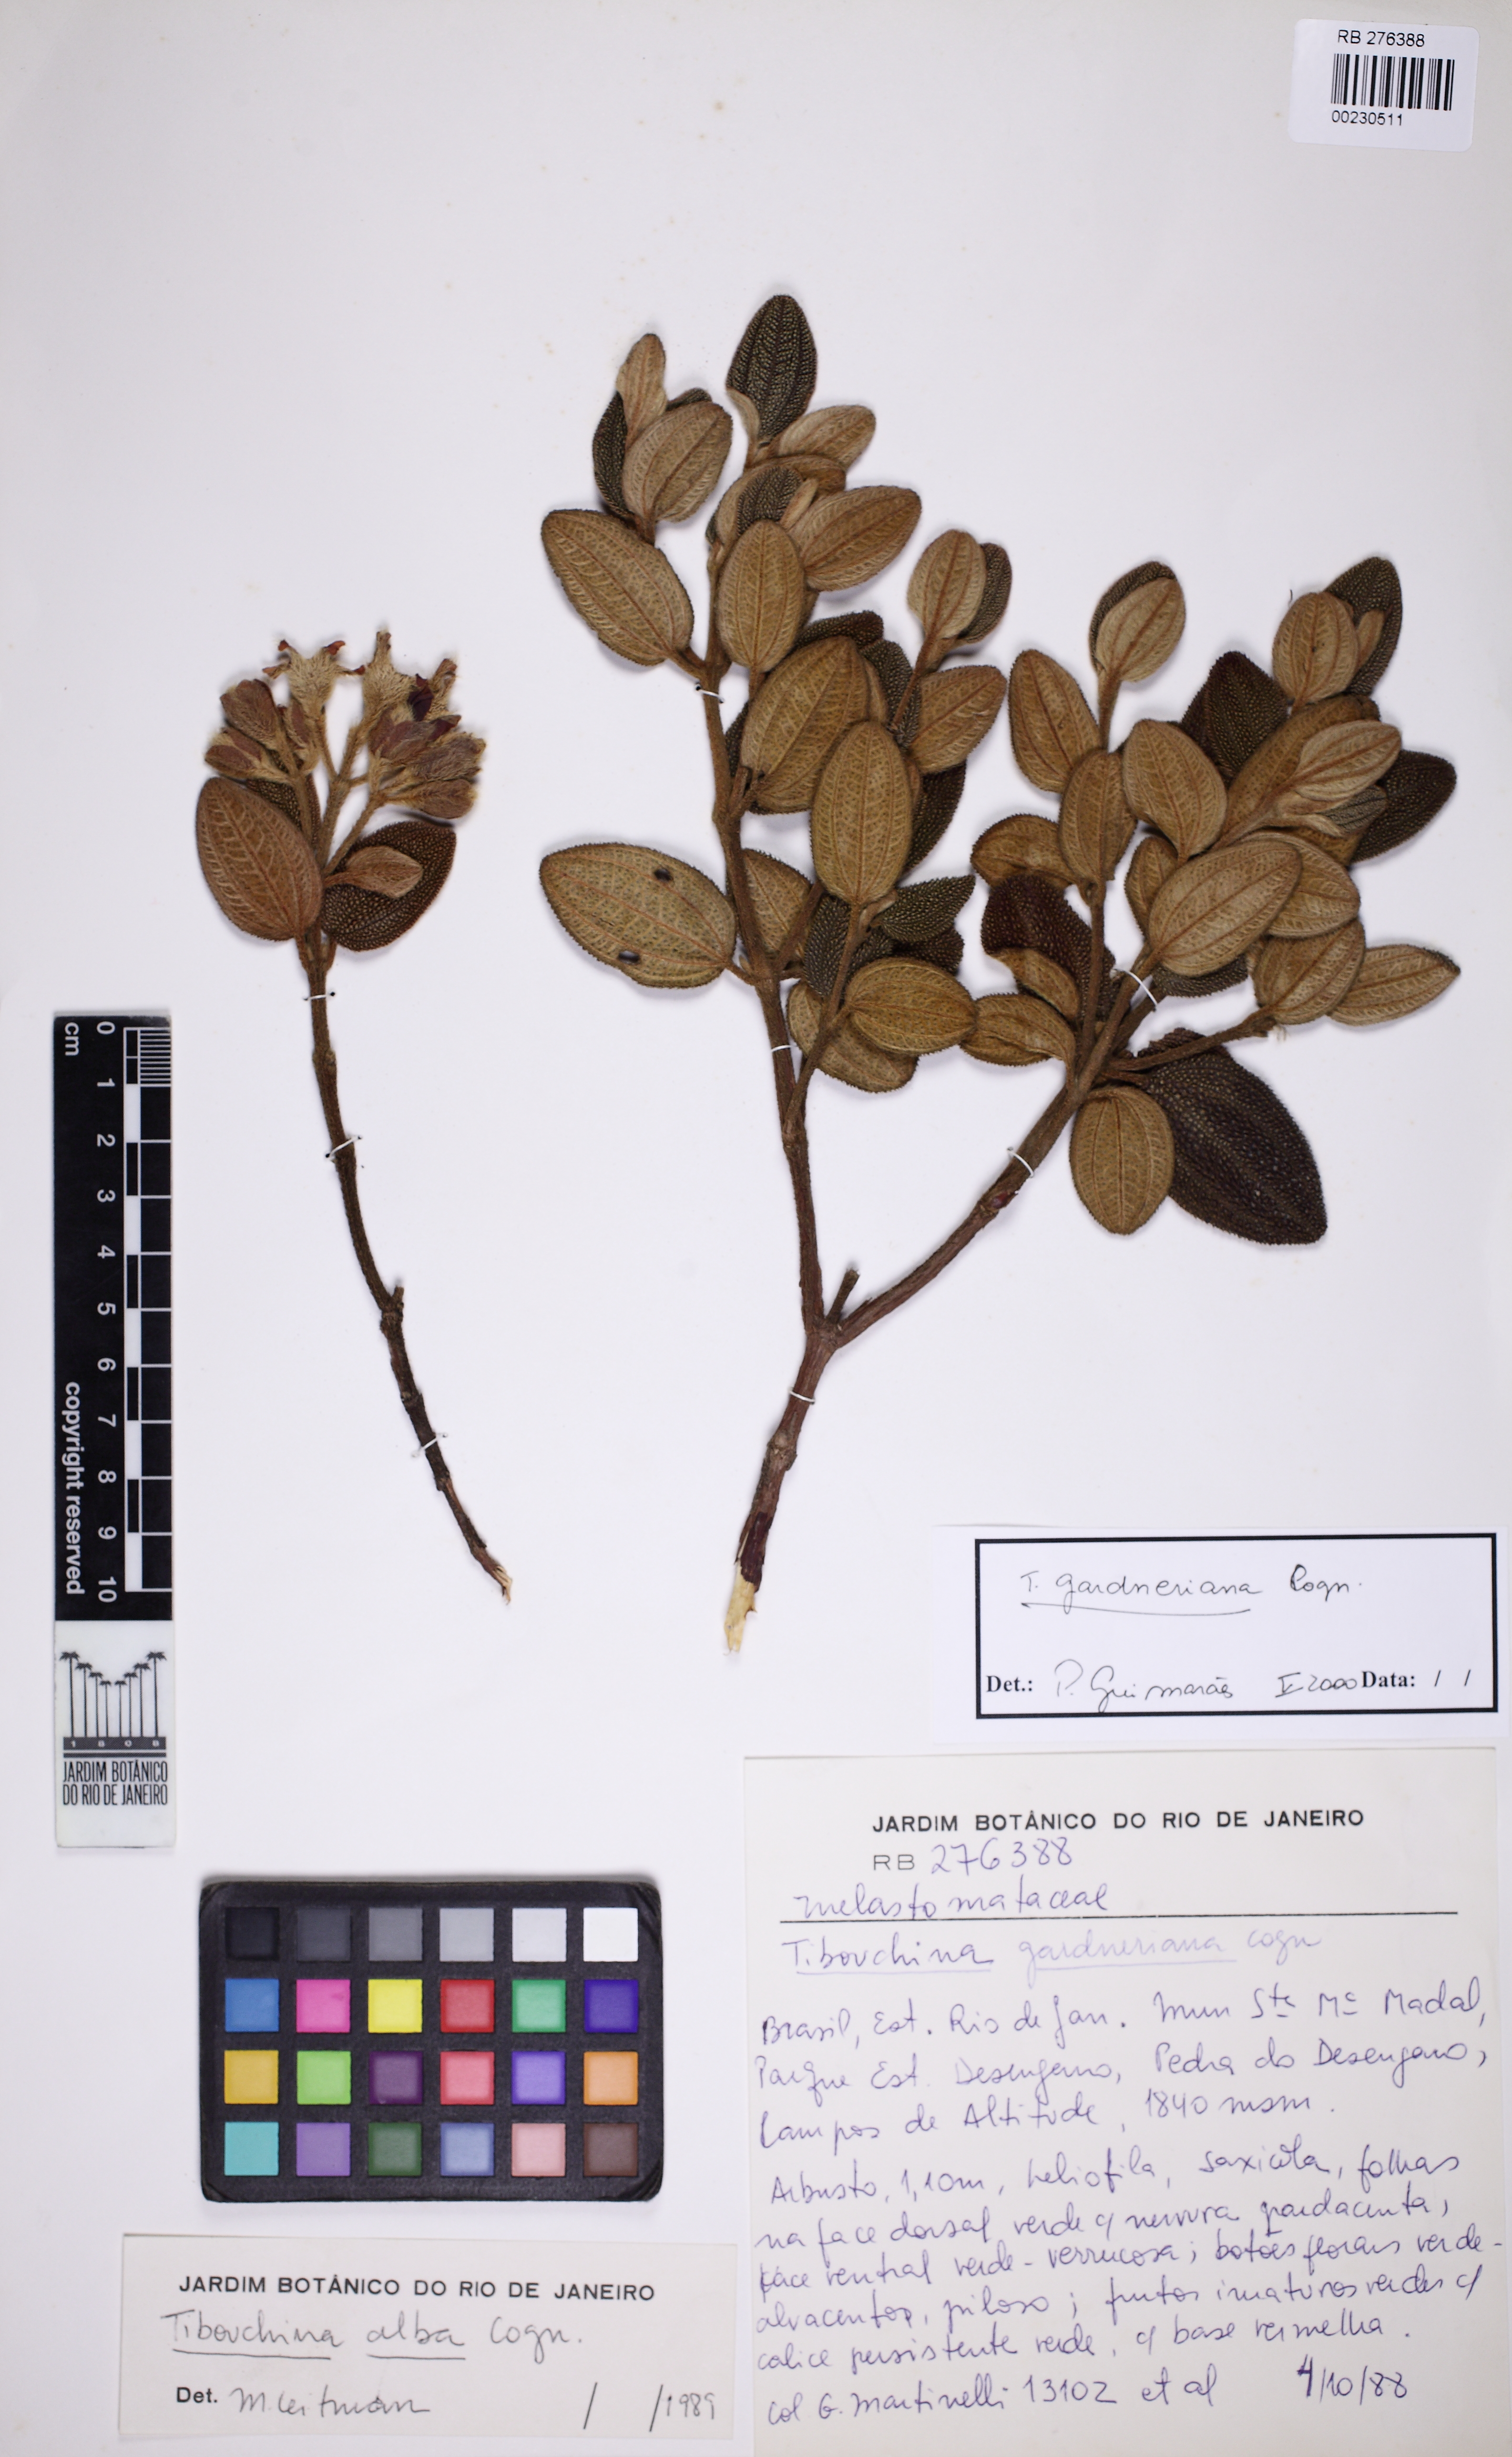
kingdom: Plantae
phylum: Tracheophyta
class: Magnoliopsida
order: Myrtales
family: Melastomataceae
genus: Pleroma
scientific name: Pleroma echinatum
